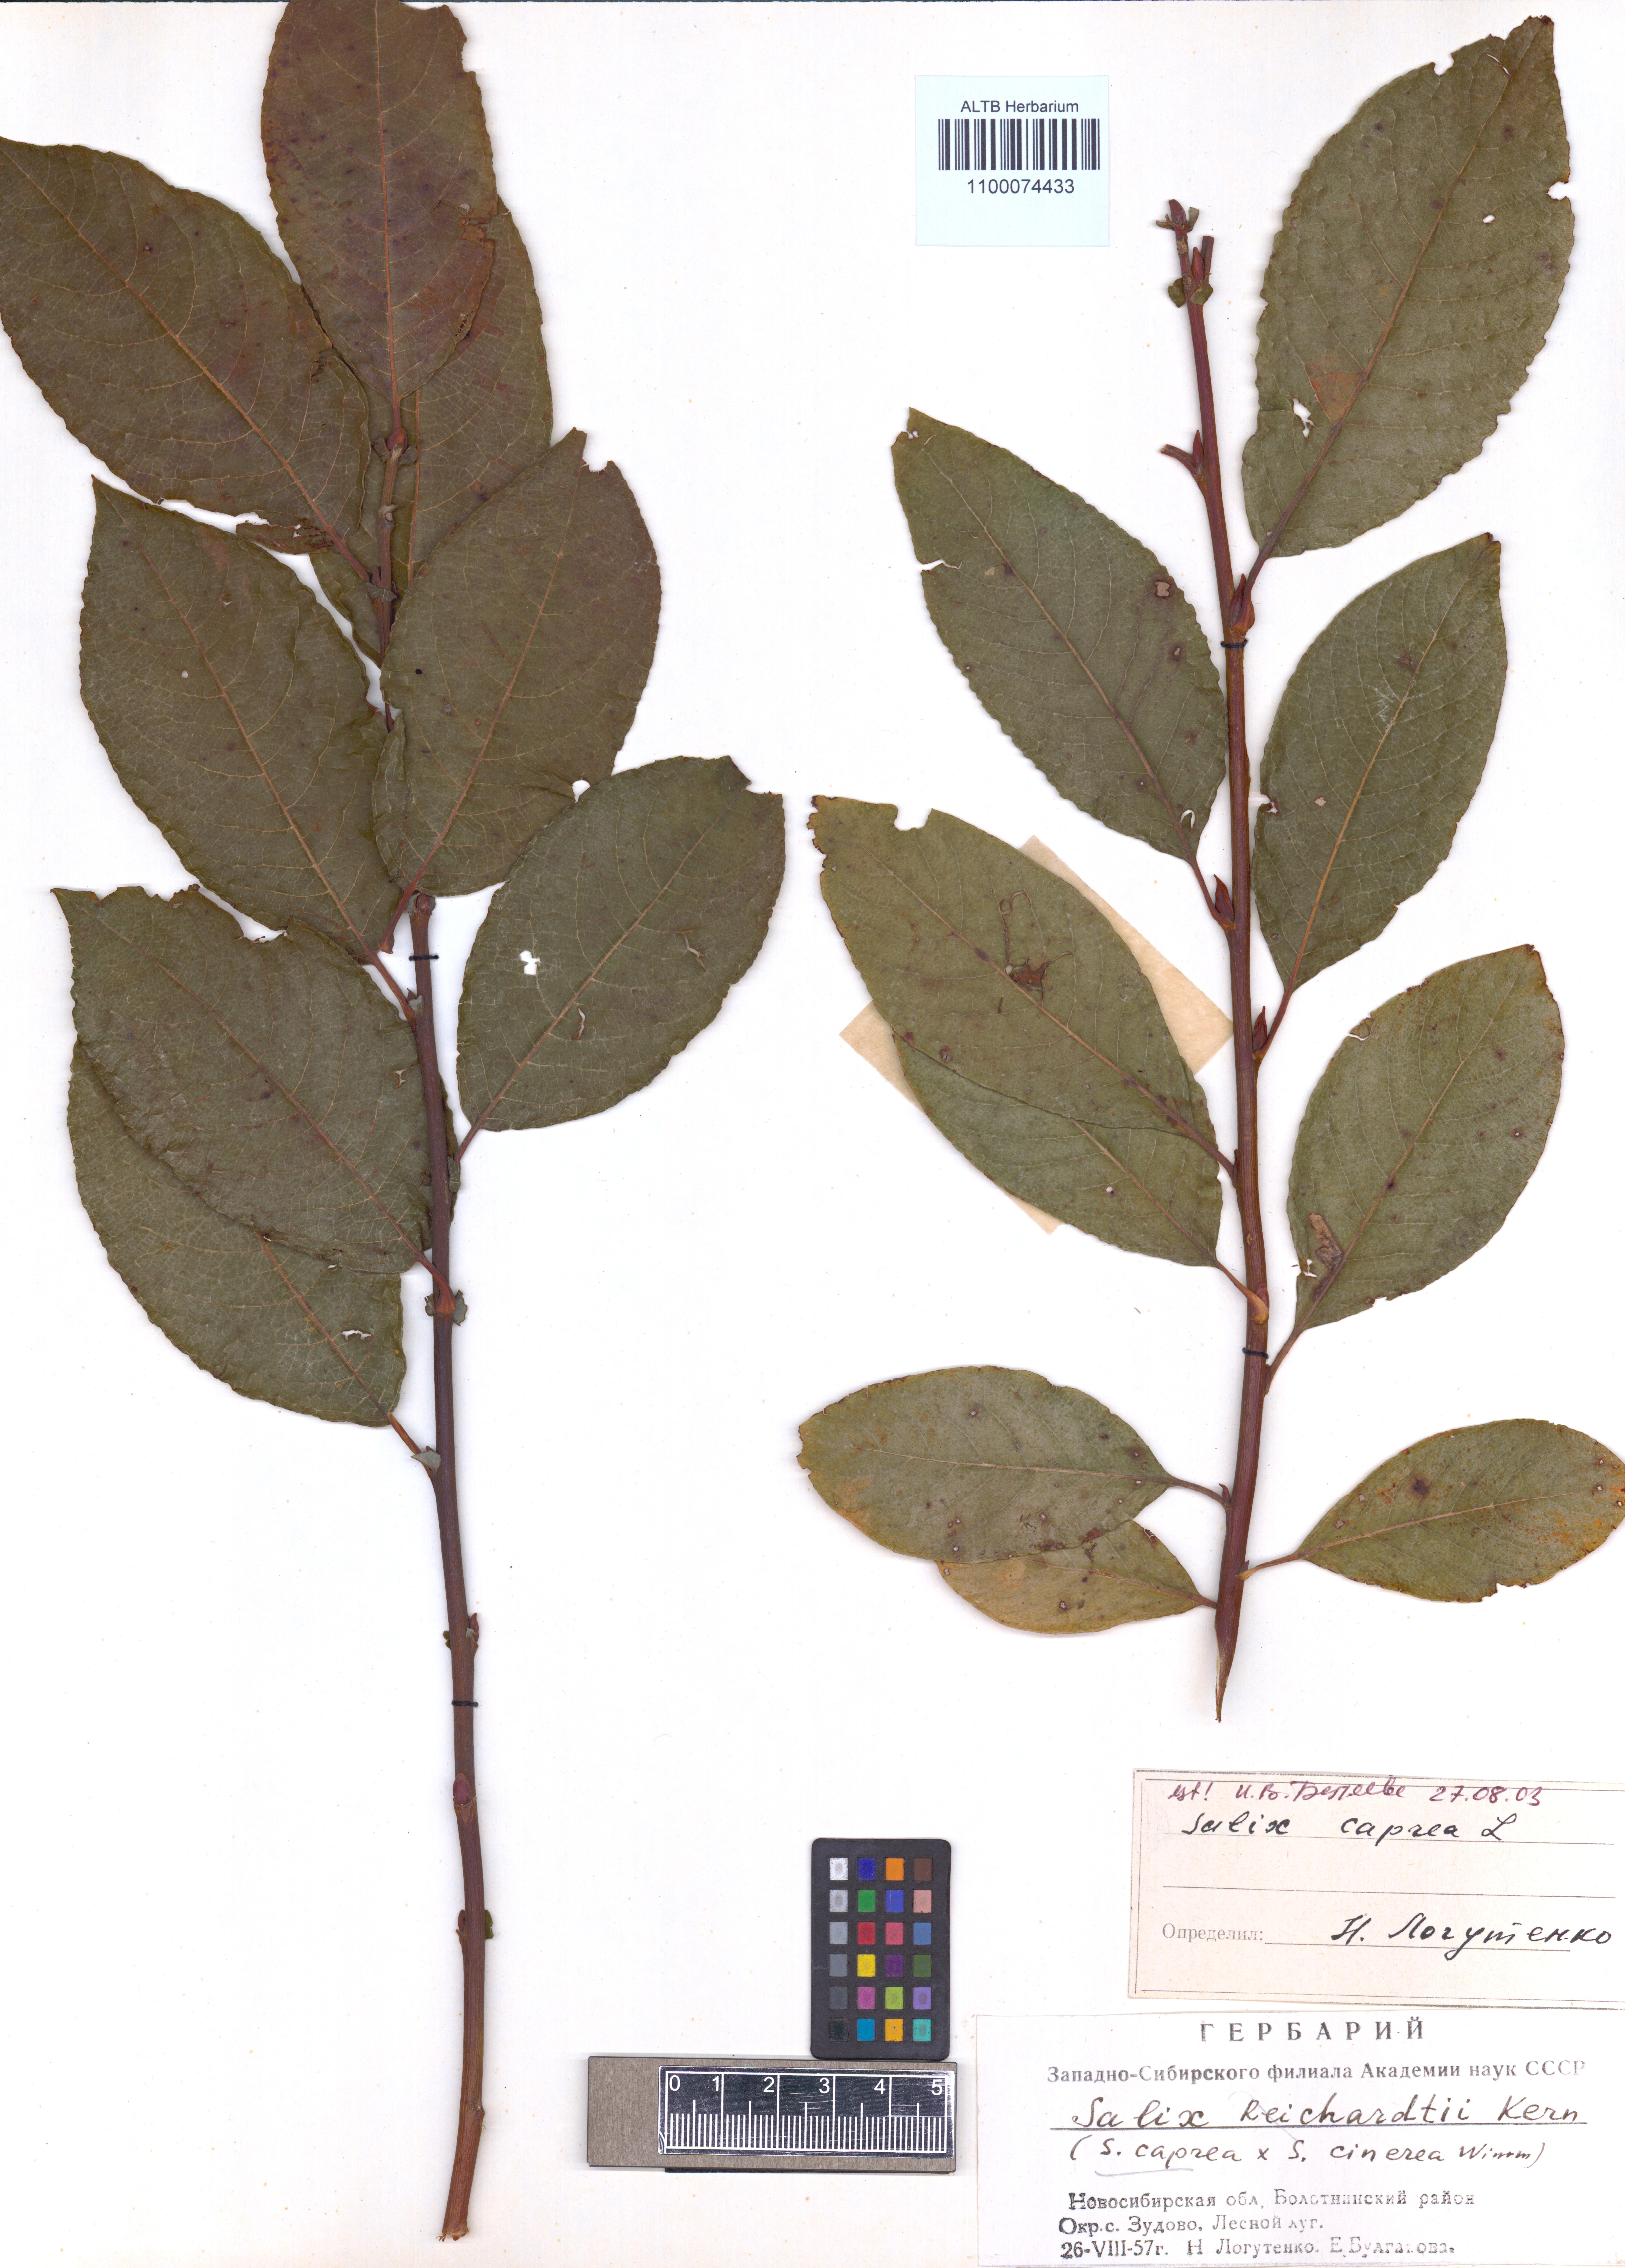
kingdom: Plantae
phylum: Tracheophyta
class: Magnoliopsida
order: Malpighiales
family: Salicaceae
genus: Salix
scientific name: Salix caprea
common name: Goat willow
